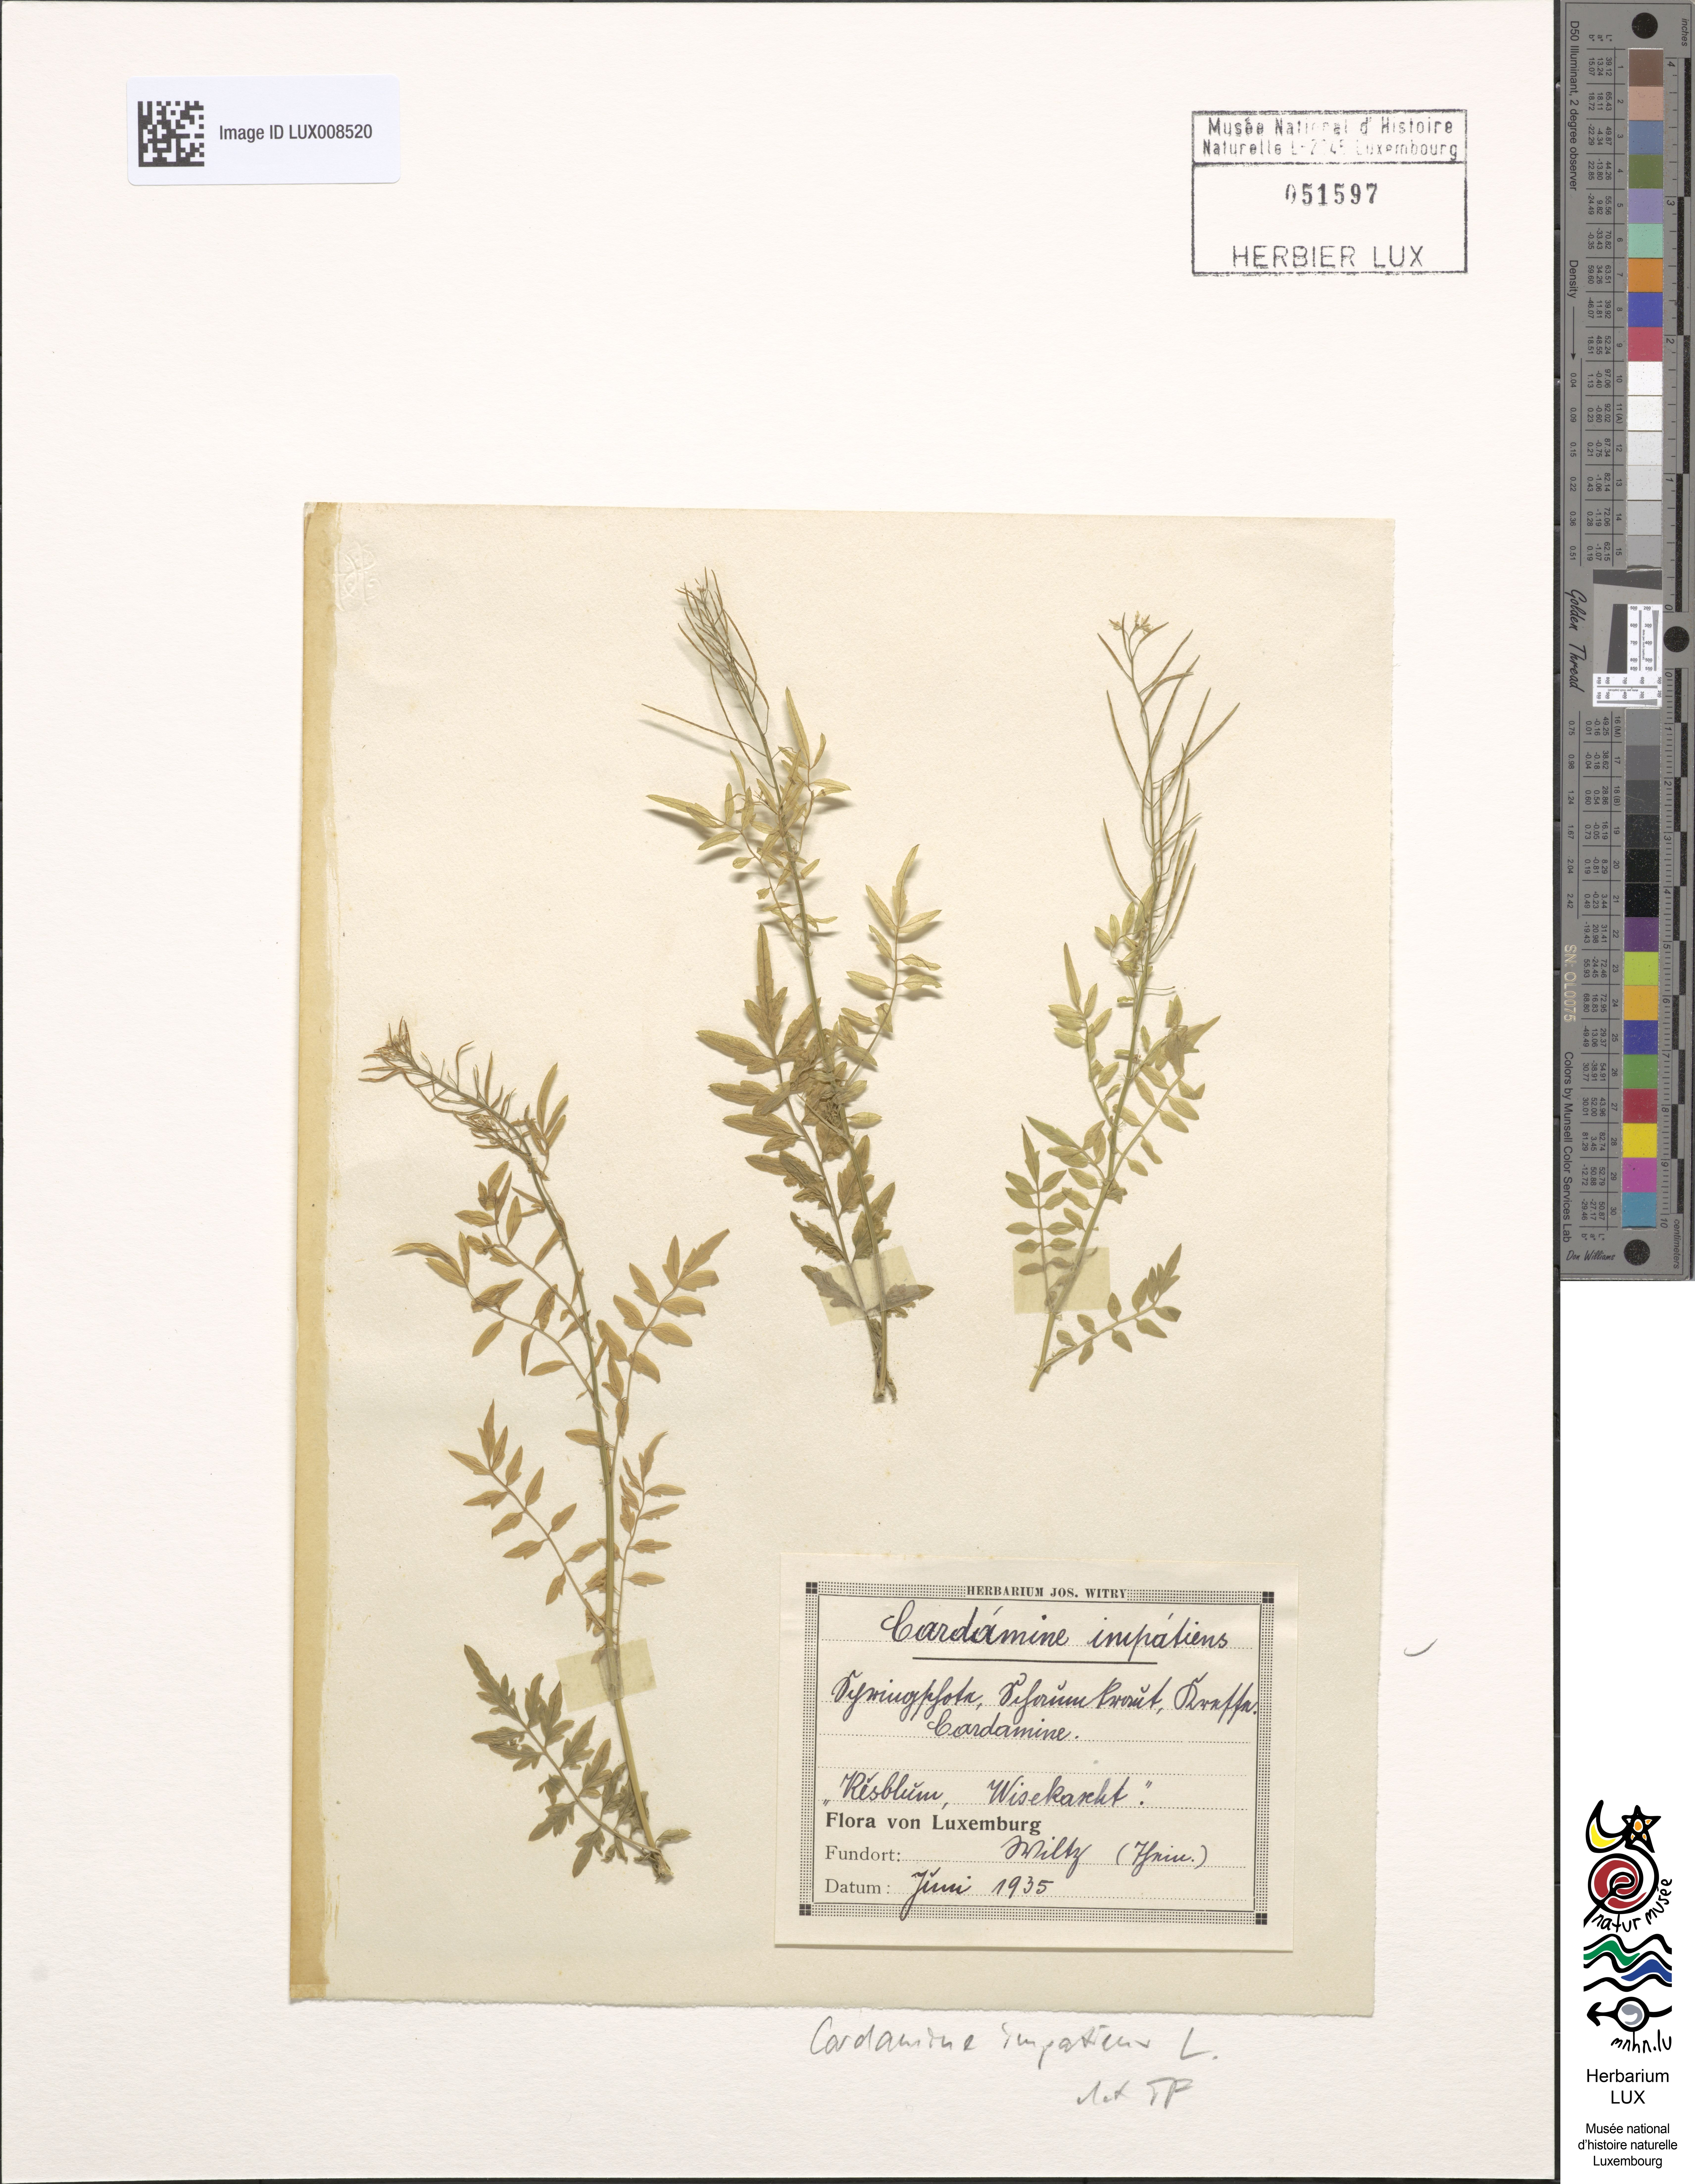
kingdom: Plantae
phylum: Tracheophyta
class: Magnoliopsida
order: Brassicales
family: Brassicaceae
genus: Cardamine
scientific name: Cardamine impatiens
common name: Narrow-leaved bitter-cress
